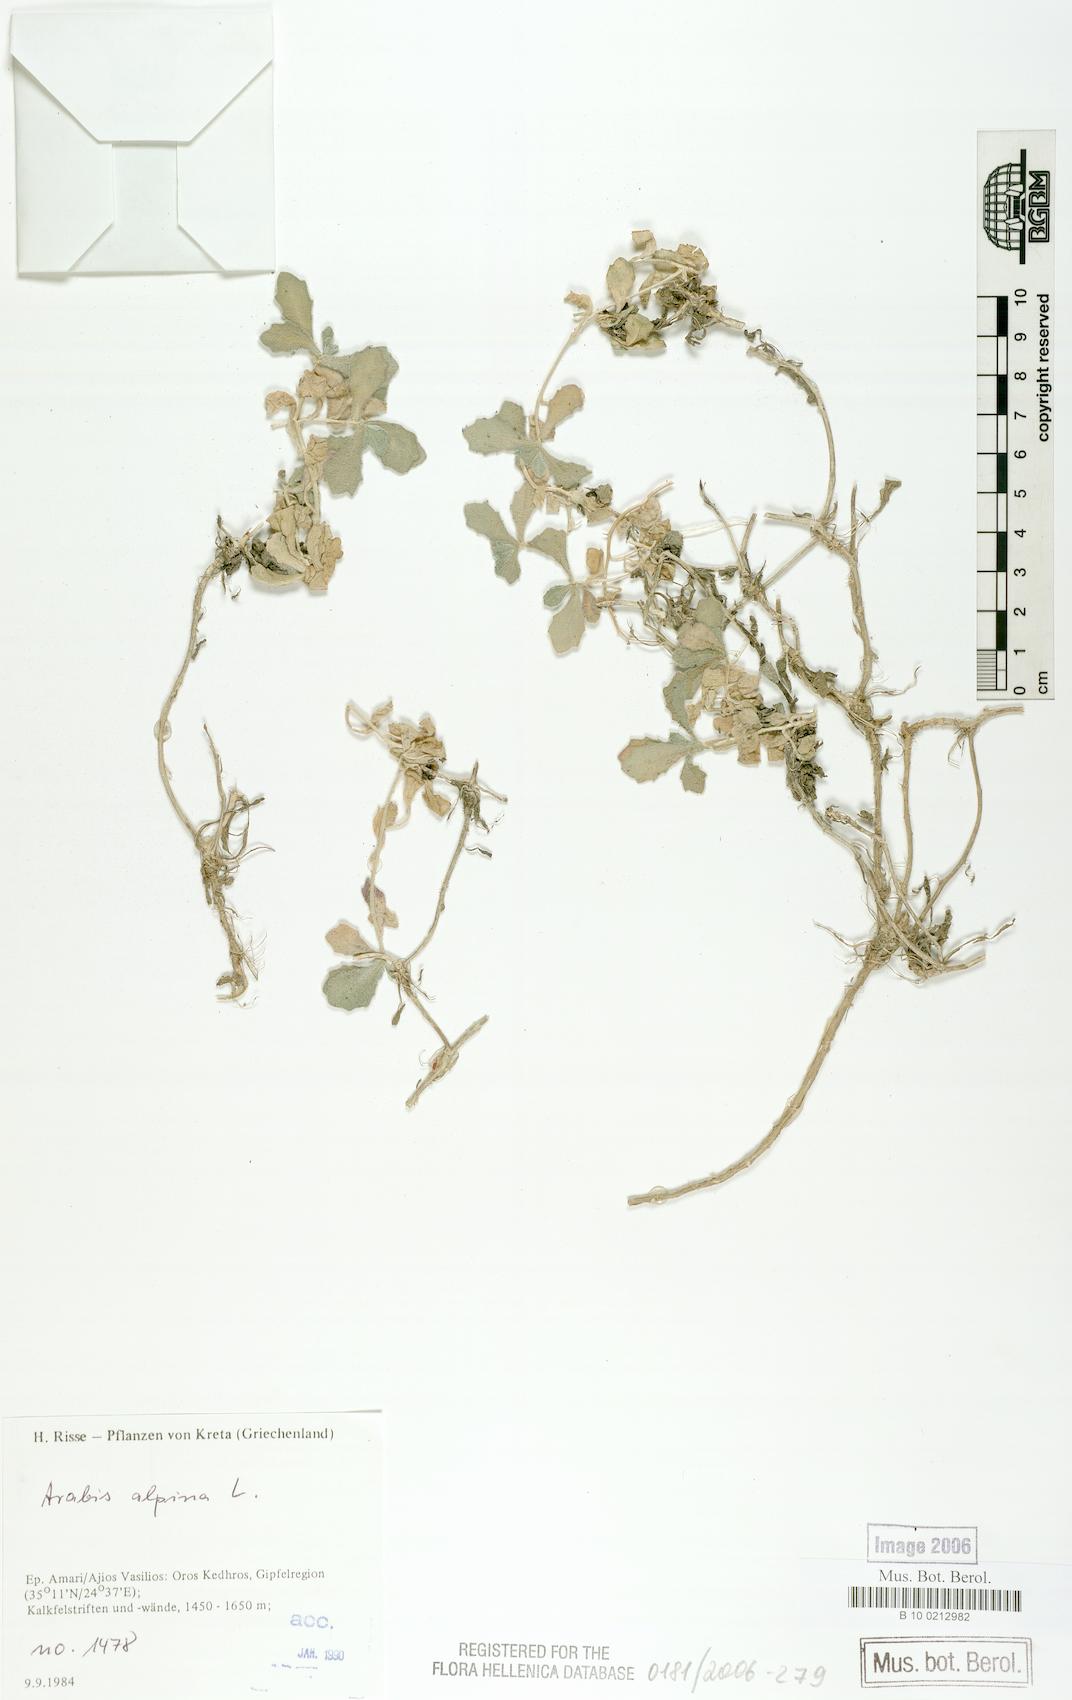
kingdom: Plantae
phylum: Tracheophyta
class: Magnoliopsida
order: Brassicales
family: Brassicaceae
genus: Arabis
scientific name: Arabis alpina
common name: Alpine rock-cress
